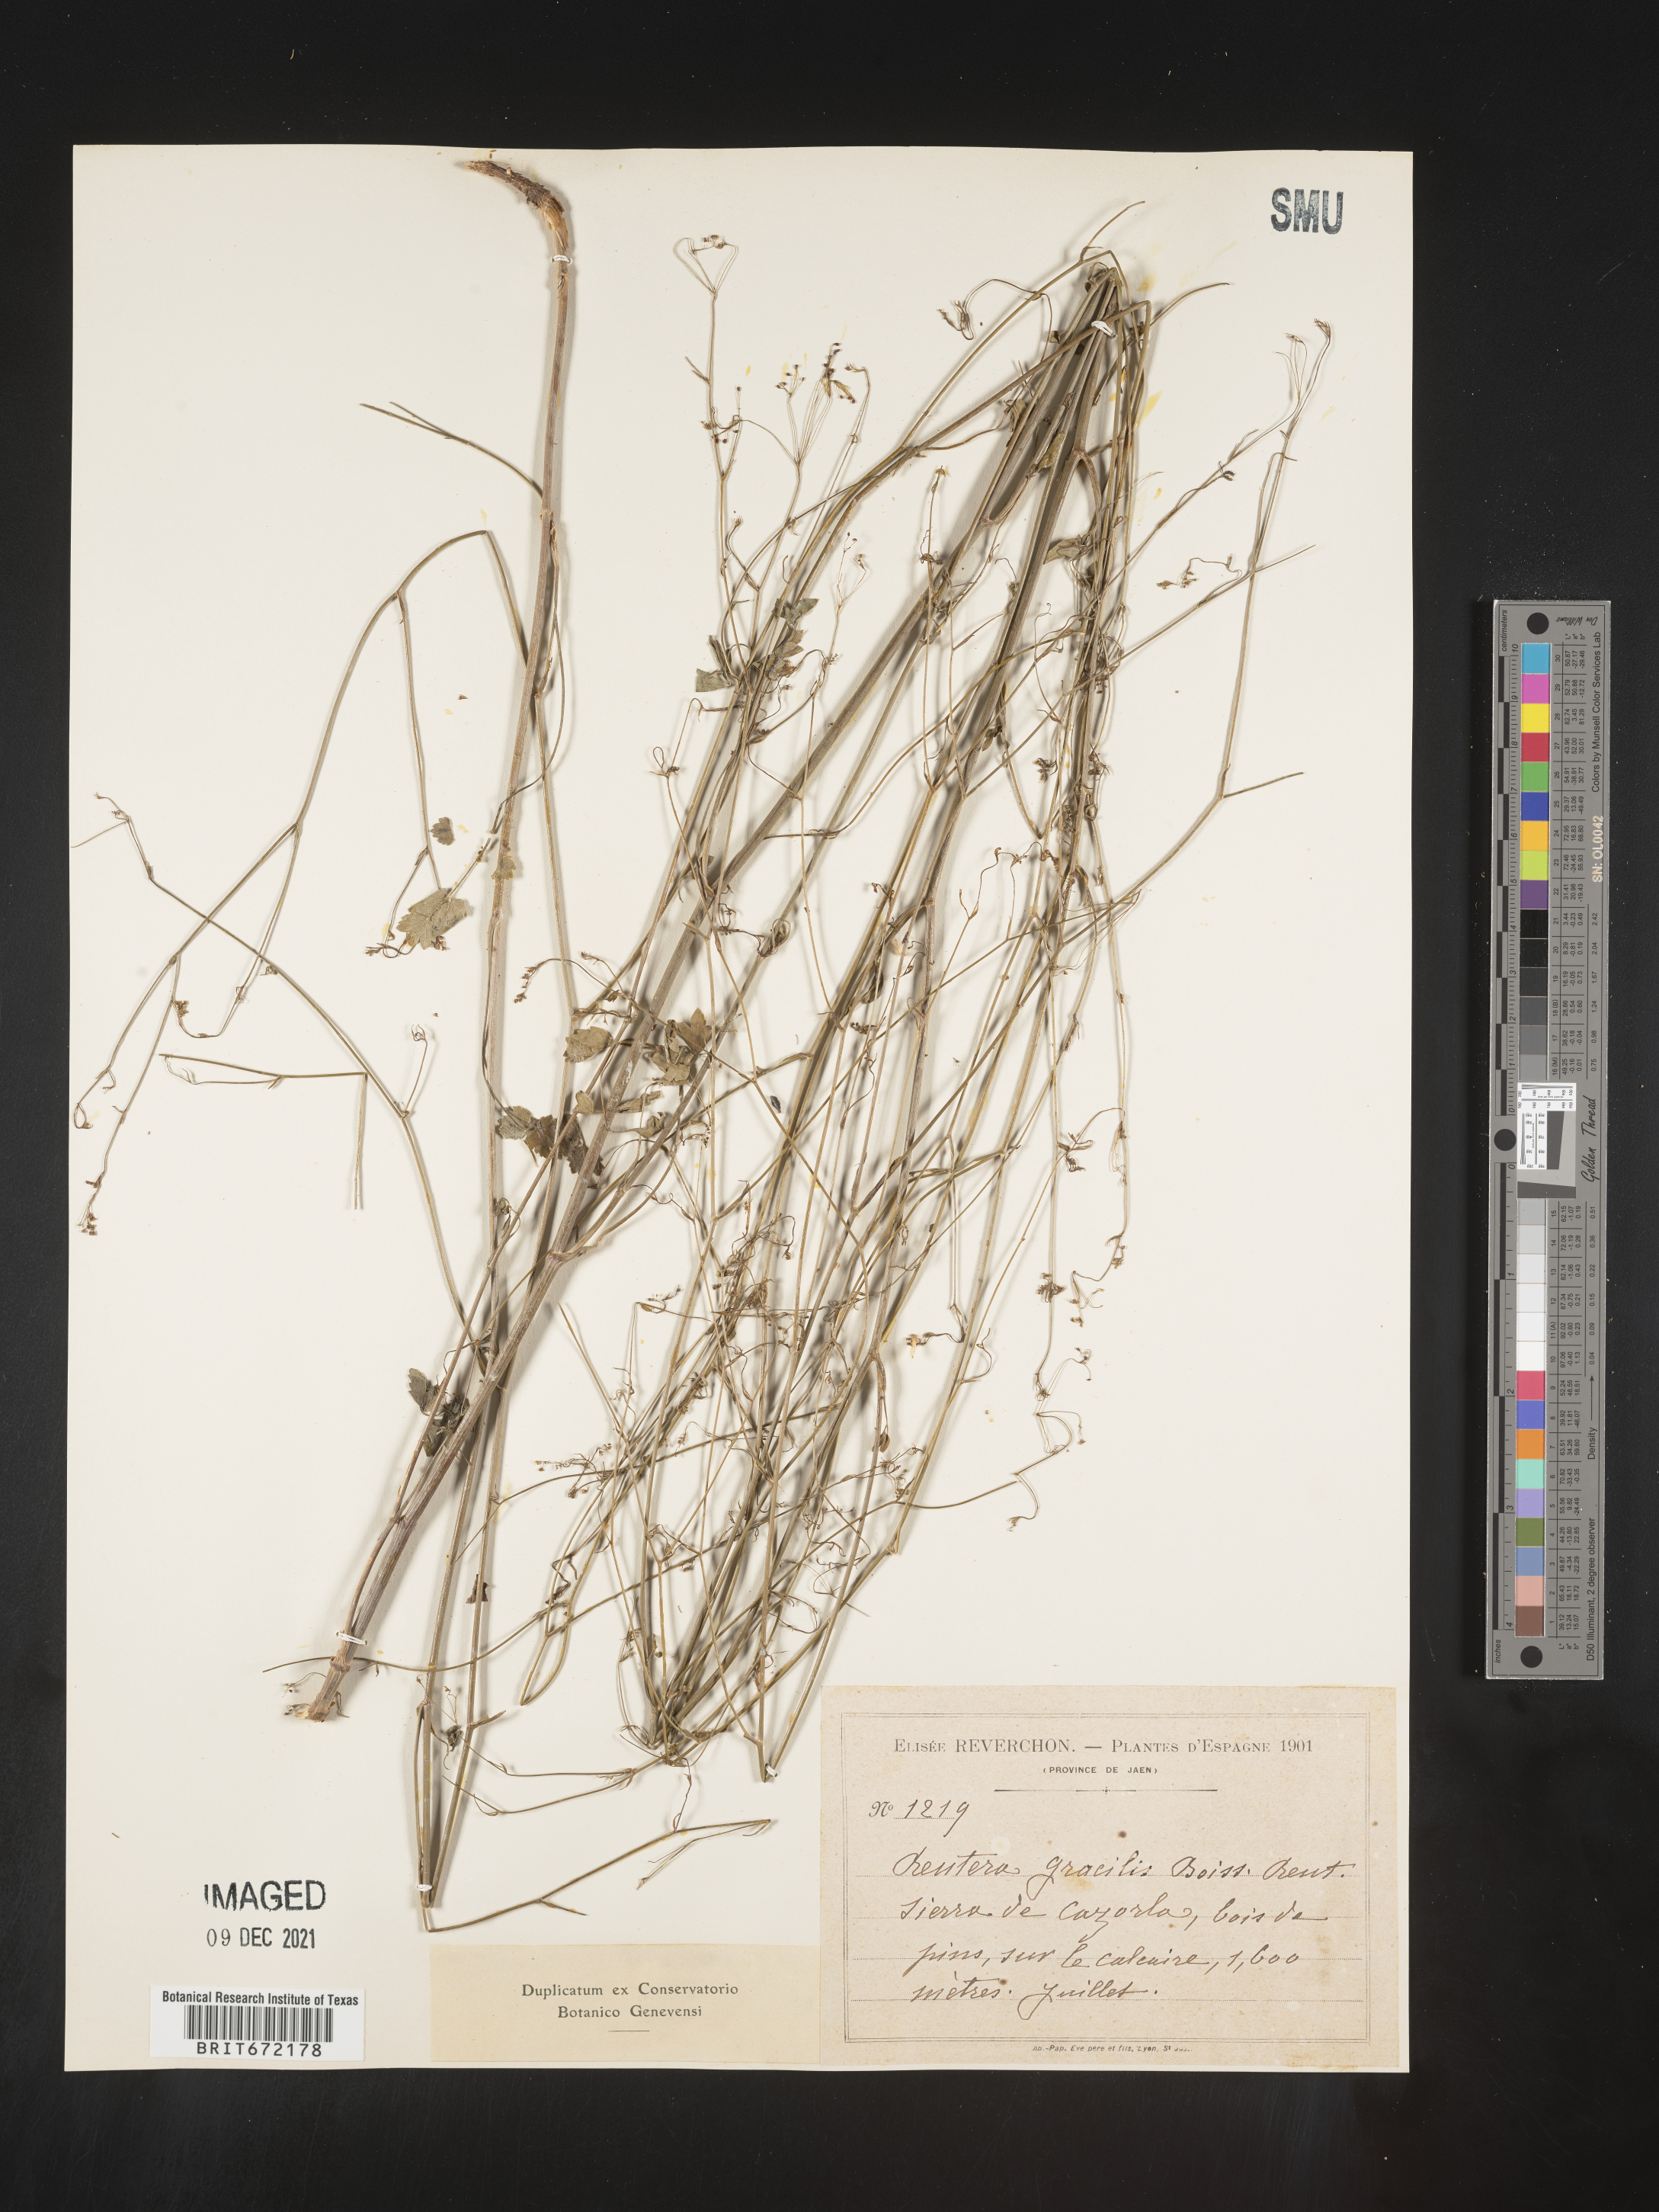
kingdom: Plantae
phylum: Tracheophyta
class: Magnoliopsida
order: Apiales
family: Apiaceae
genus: Pimpinella
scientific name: Pimpinella propinqua
